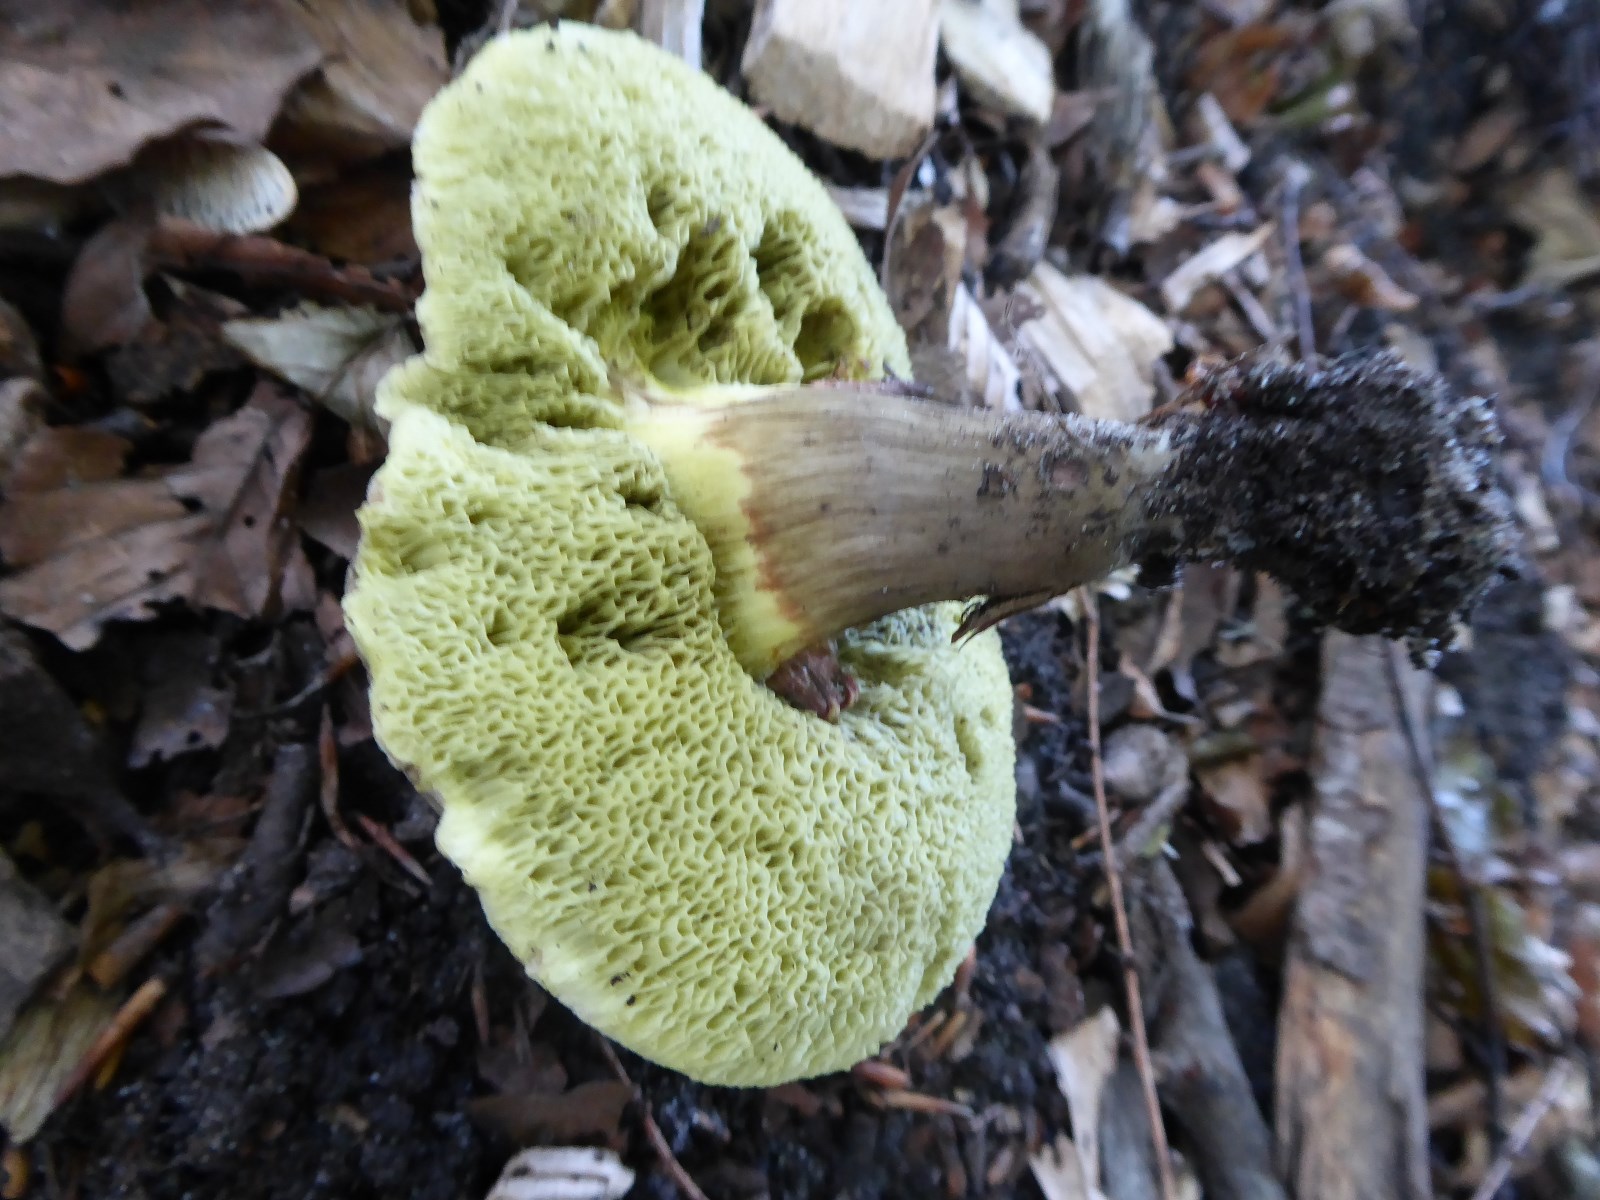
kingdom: Fungi
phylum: Basidiomycota
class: Agaricomycetes
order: Boletales
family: Boletaceae
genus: Xerocomellus
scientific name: Xerocomellus porosporus
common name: hvidsprukken rørhat
